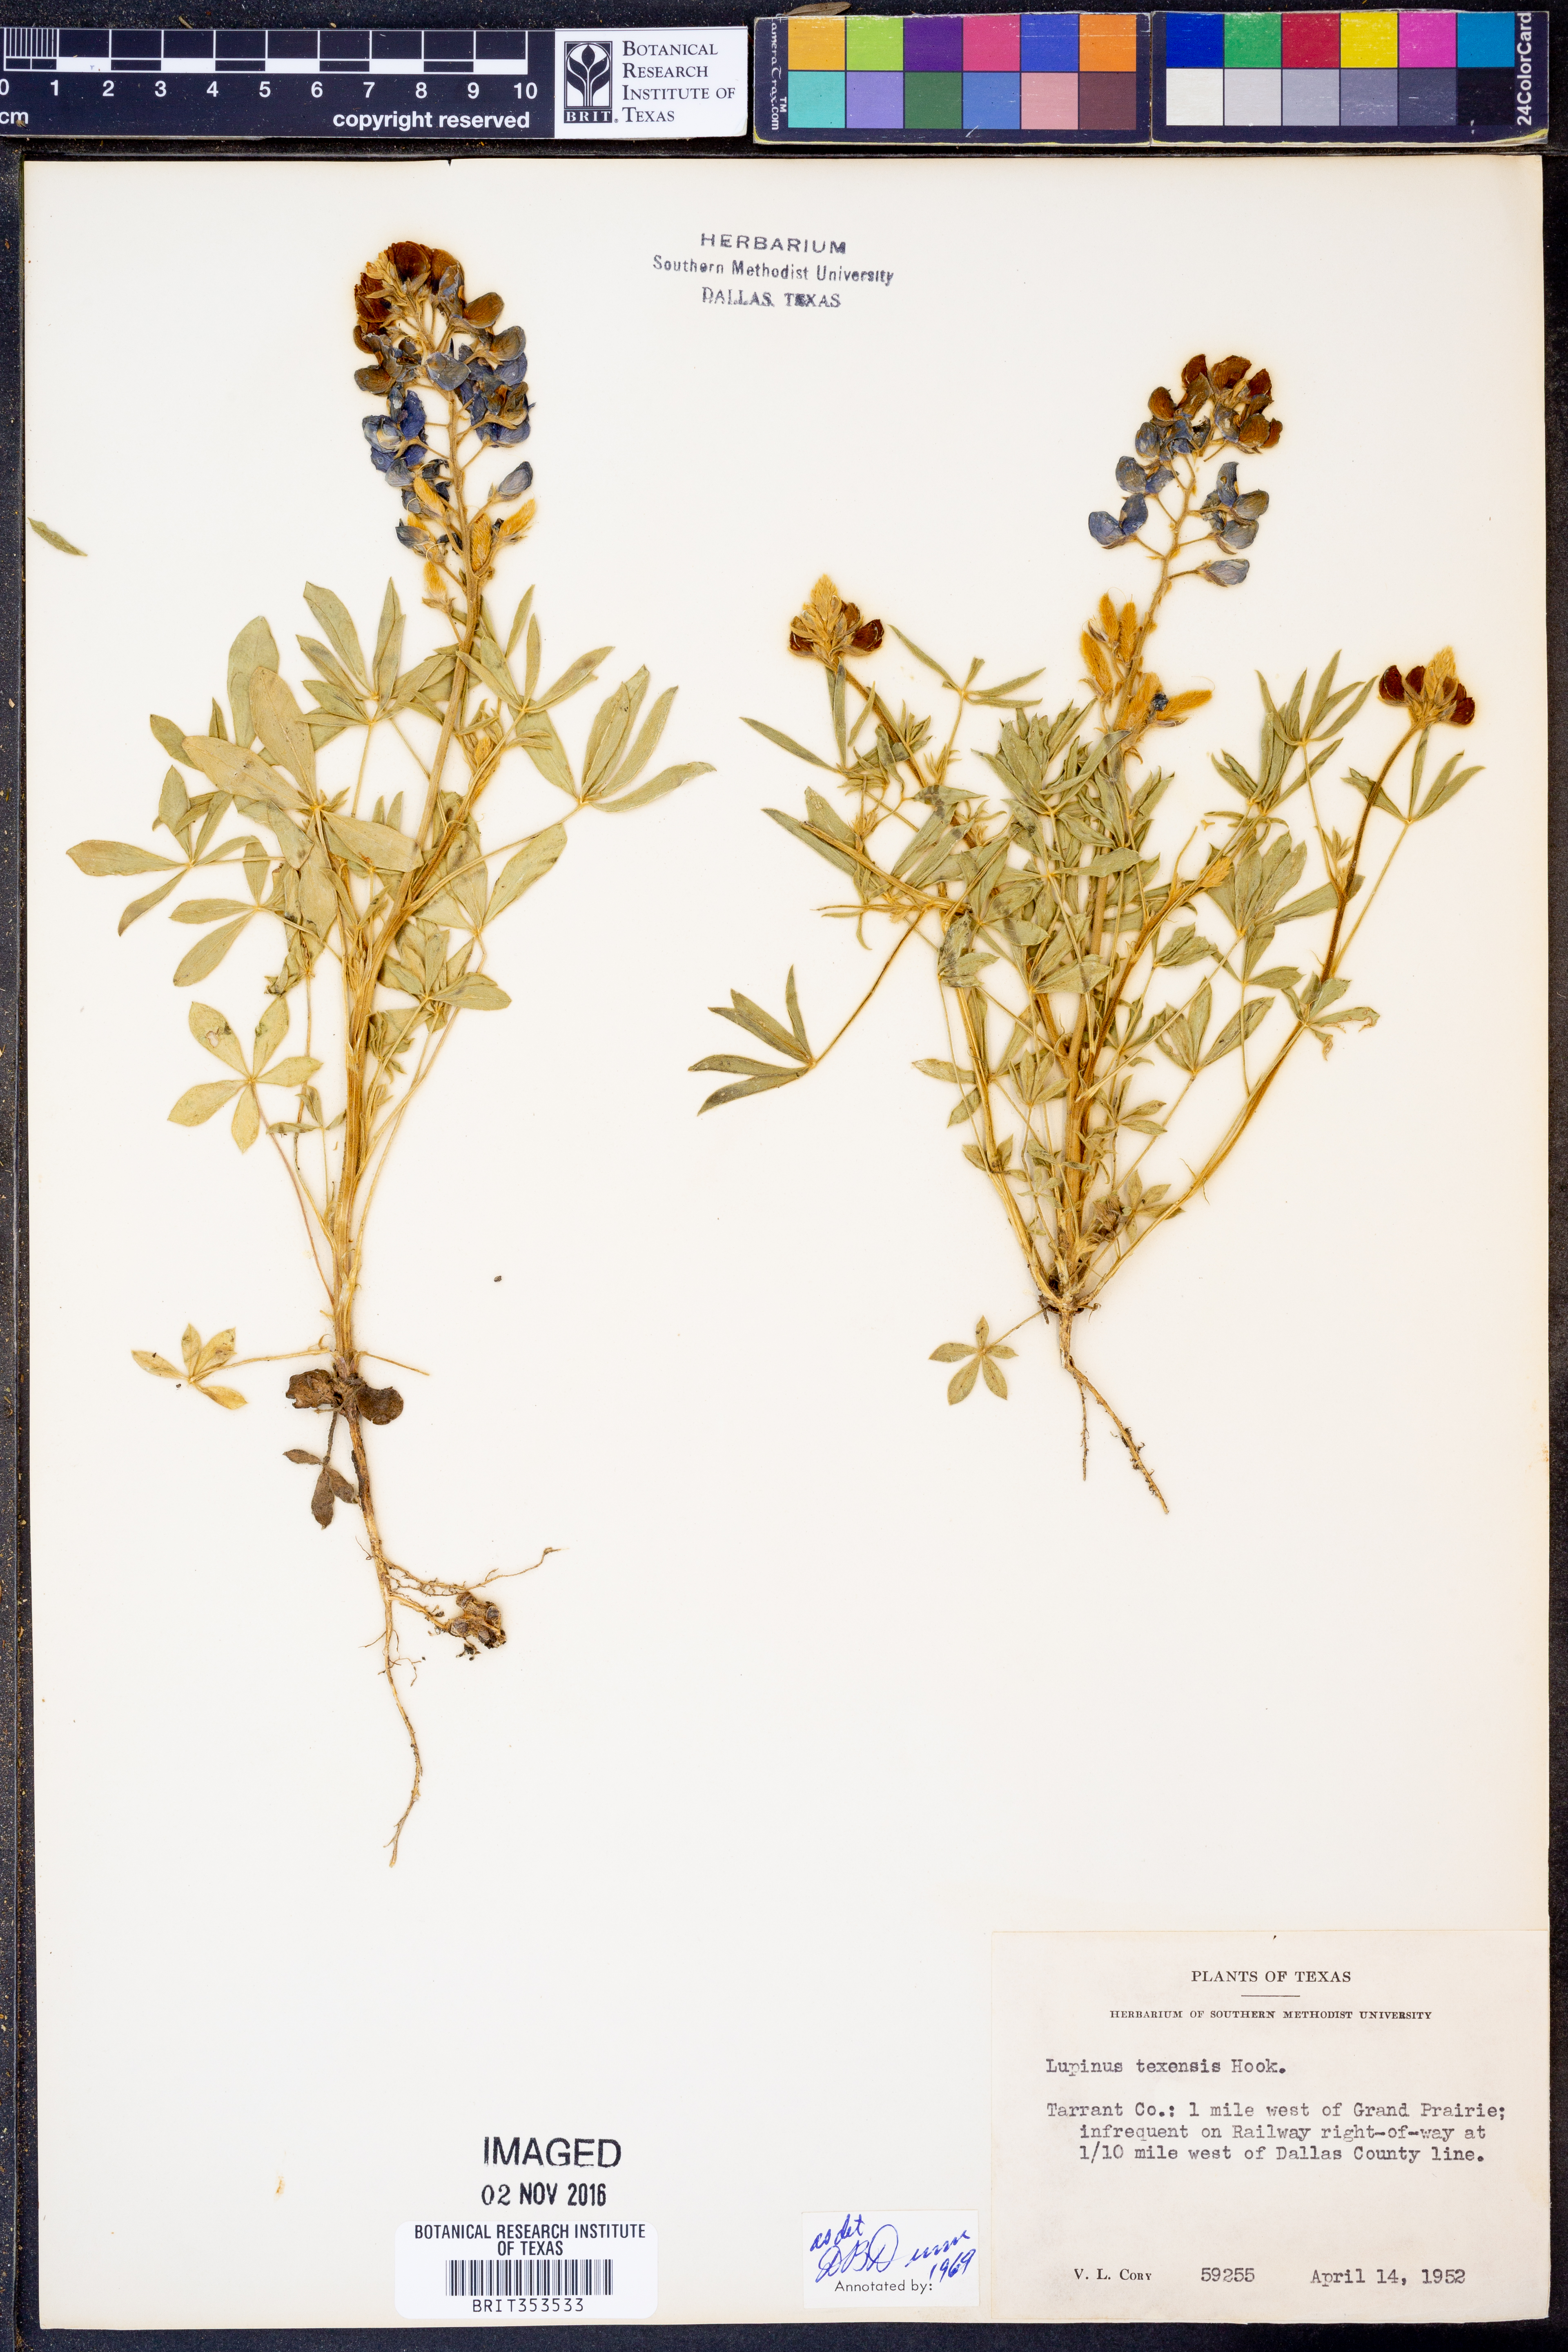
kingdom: Plantae
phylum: Tracheophyta
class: Magnoliopsida
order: Fabales
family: Fabaceae
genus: Lupinus
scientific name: Lupinus texensis
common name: Texas bluebonnet
